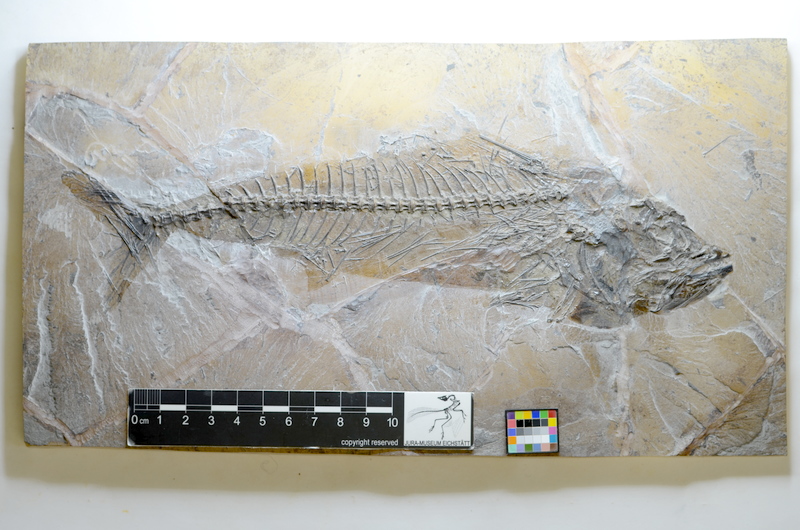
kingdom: Animalia
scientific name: Animalia
